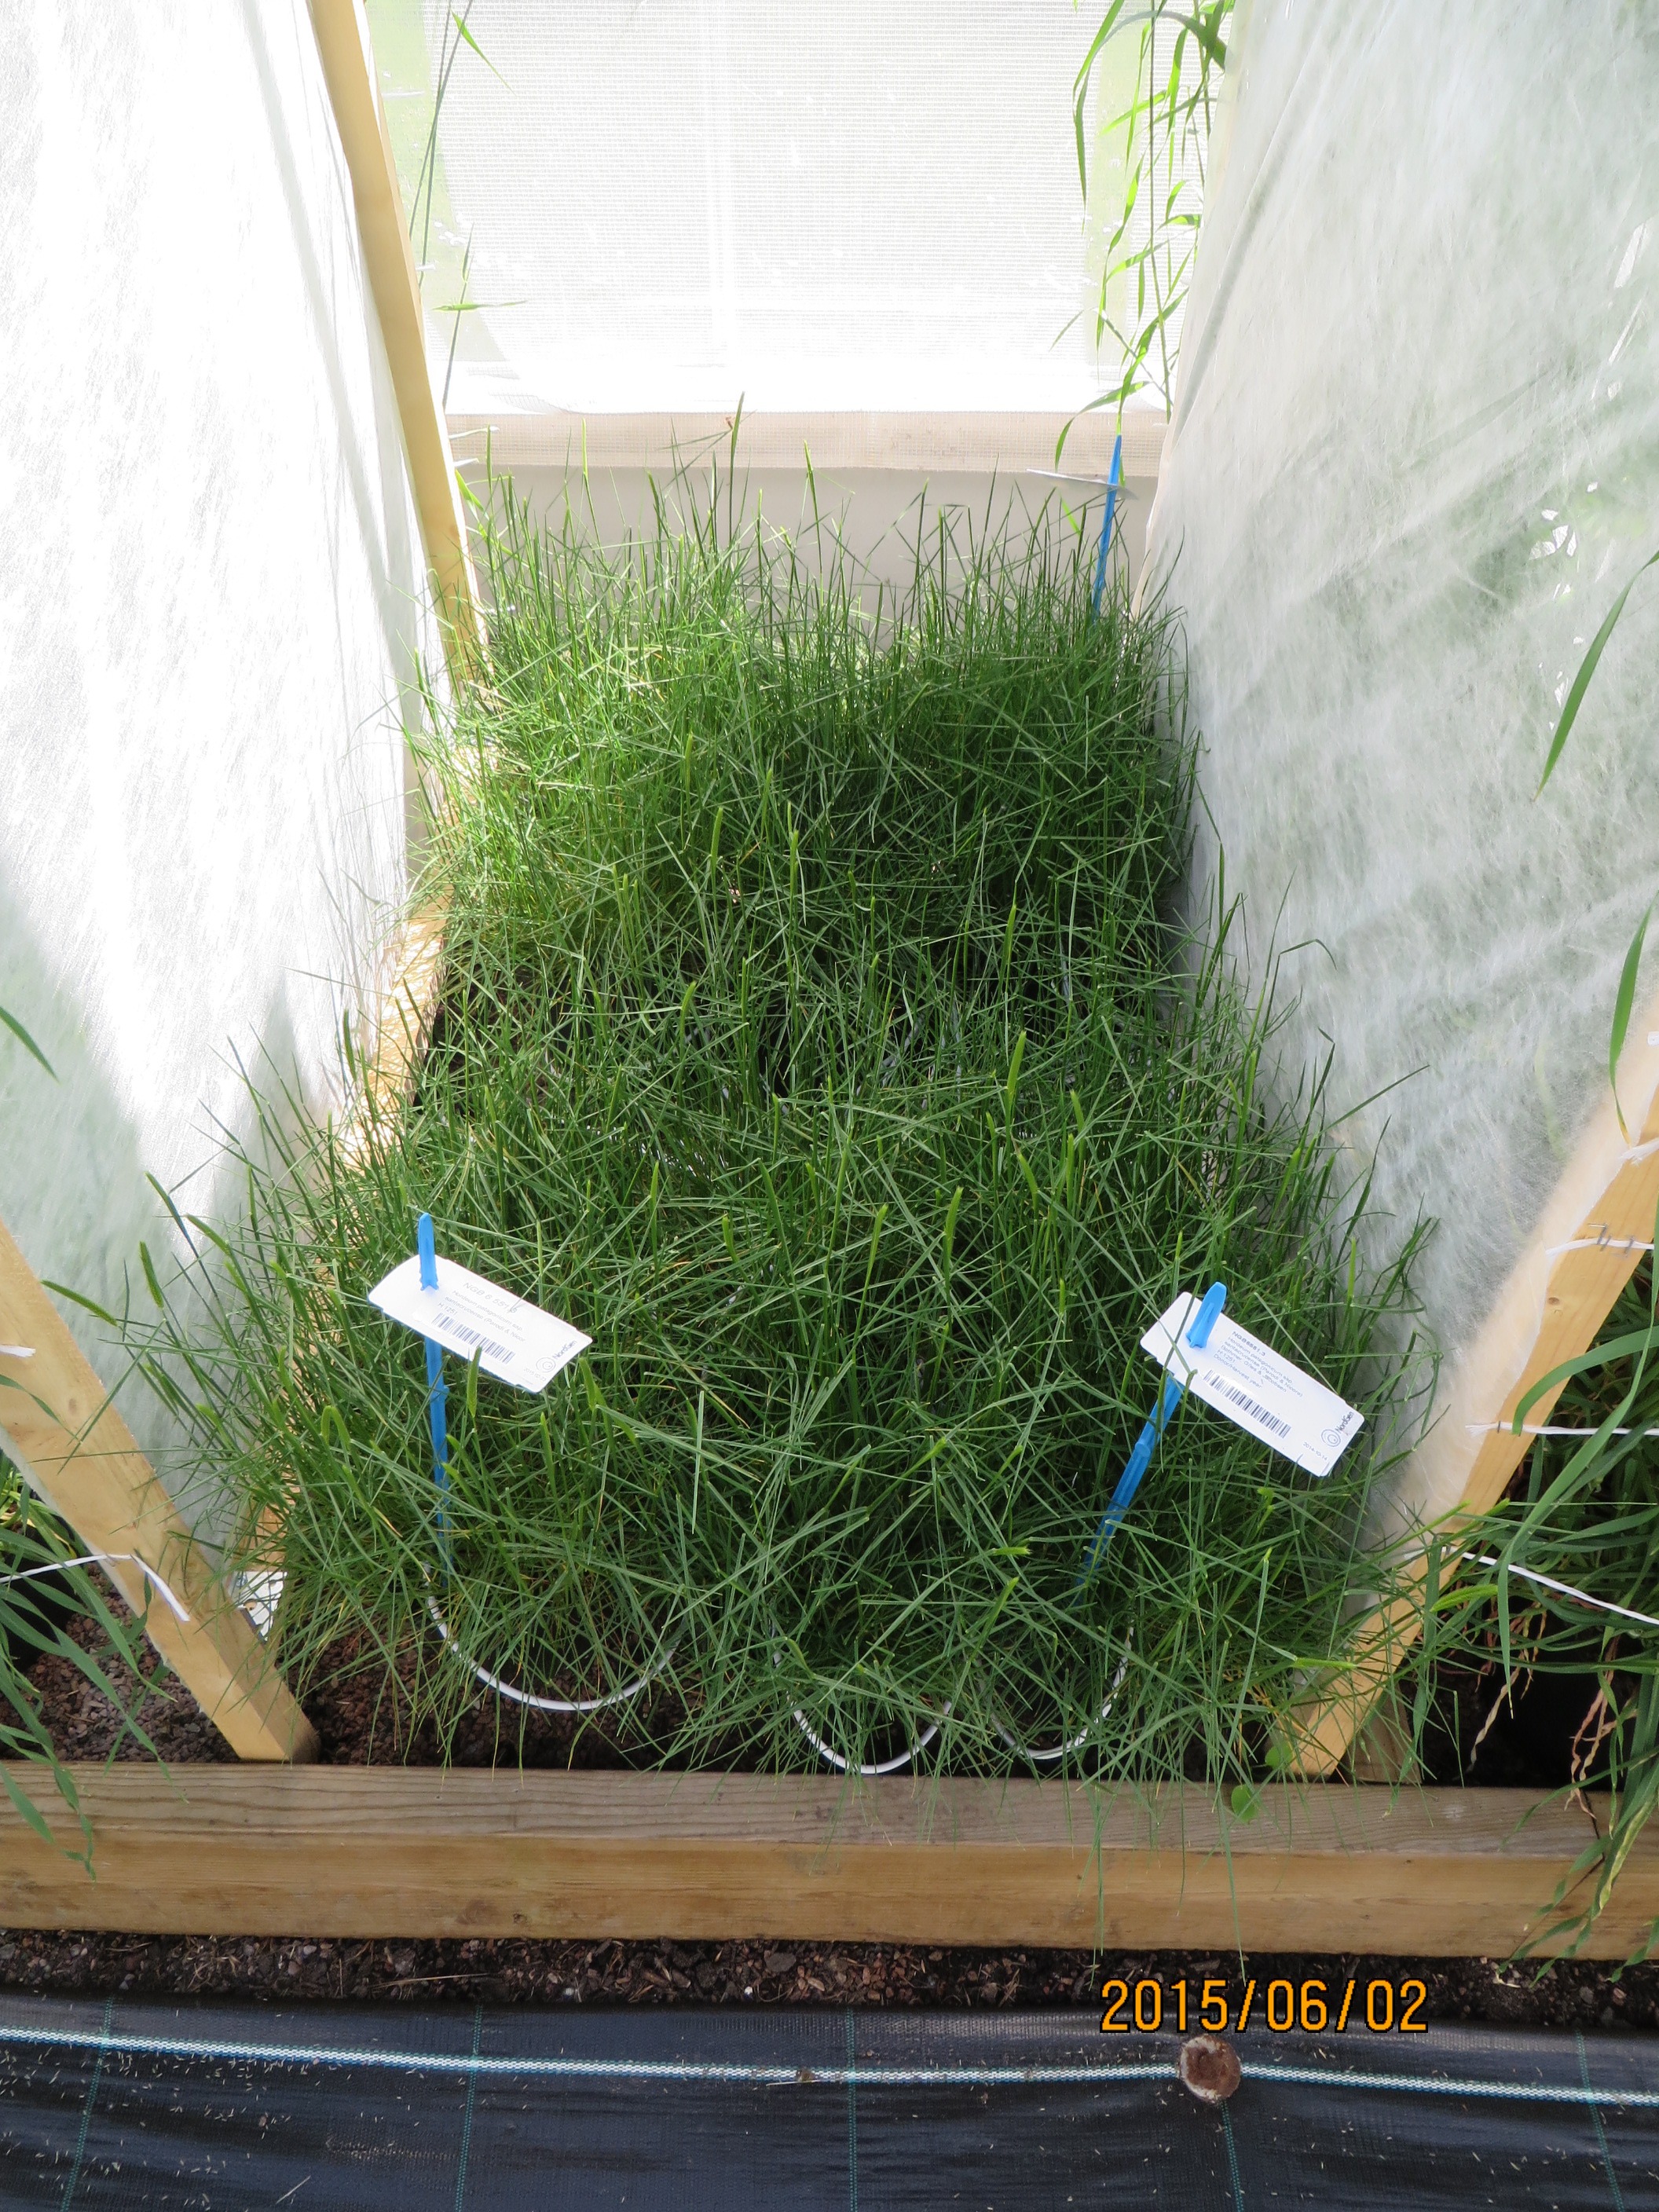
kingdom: Plantae
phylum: Tracheophyta
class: Liliopsida
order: Poales
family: Poaceae
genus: Hordeum
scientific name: Hordeum patagonicum
